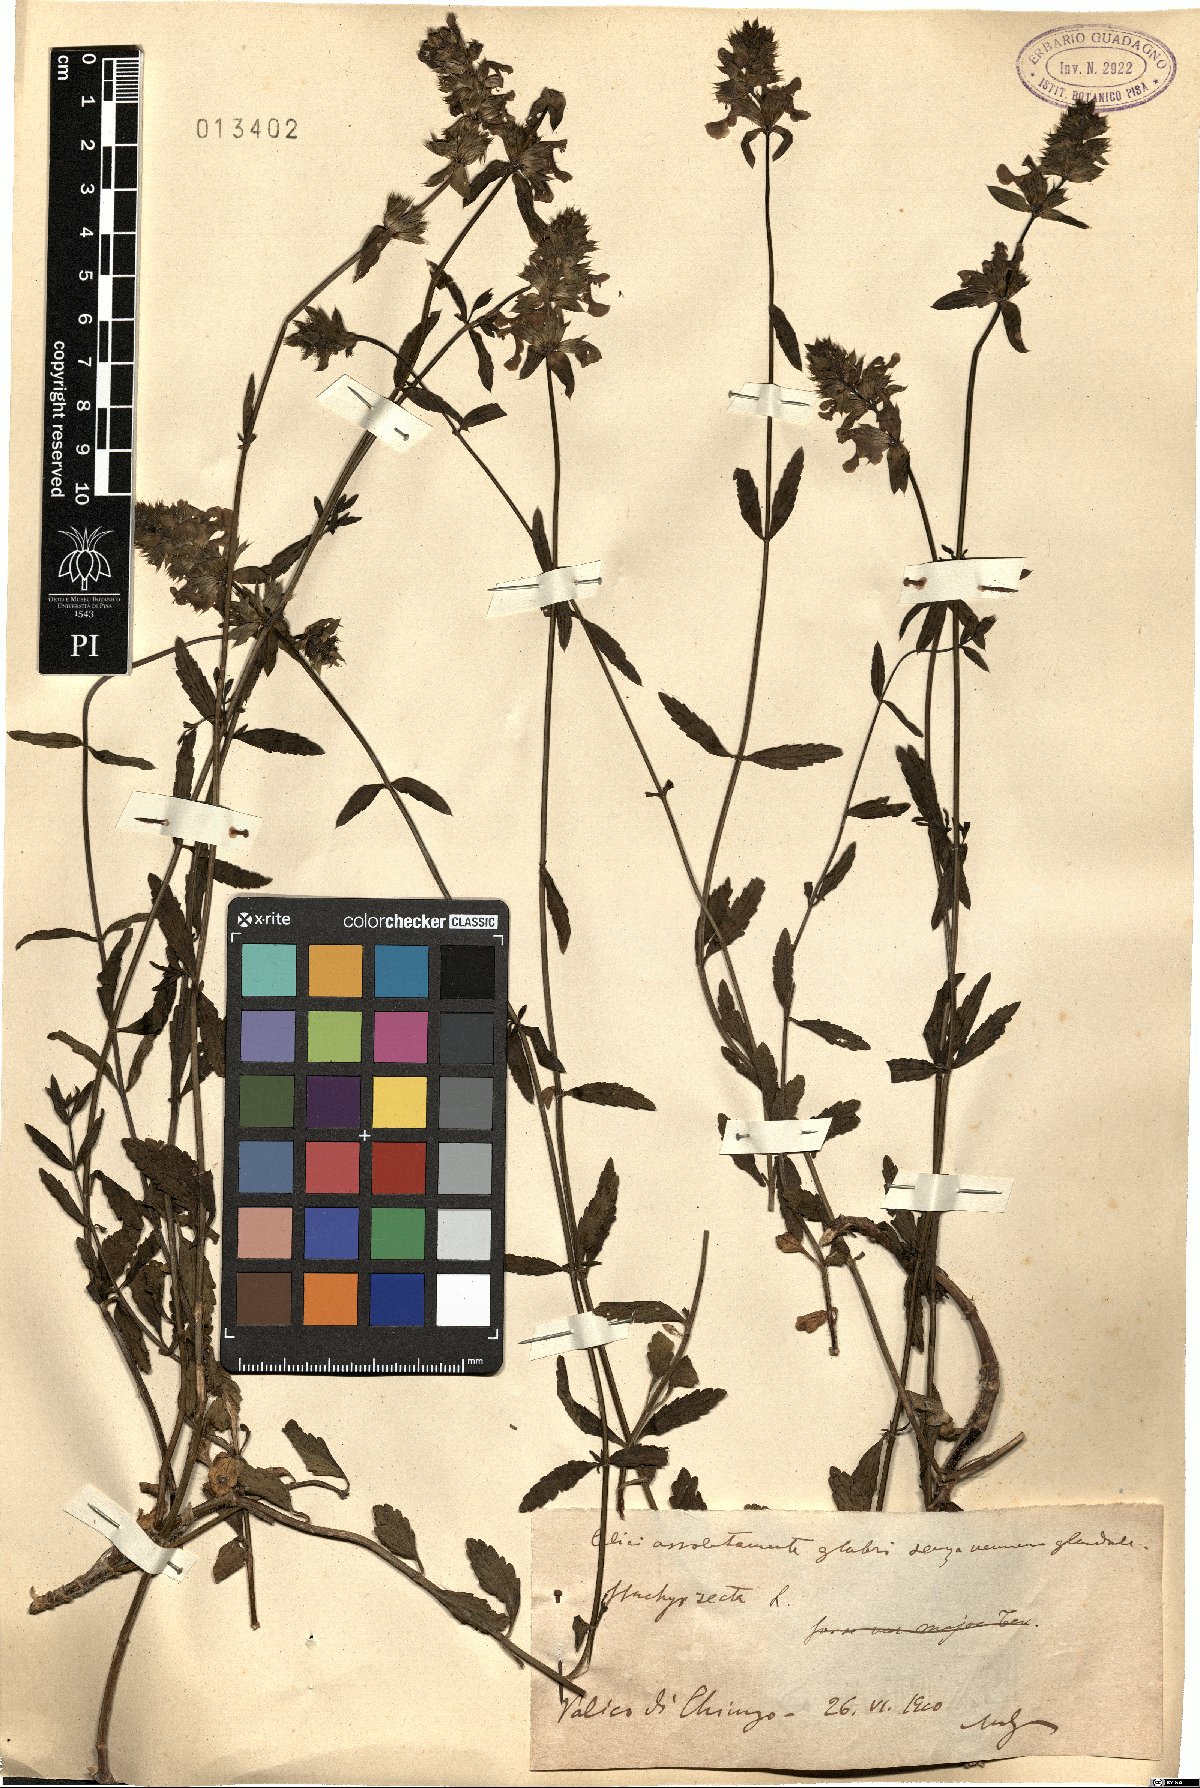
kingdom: Plantae
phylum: Tracheophyta
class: Magnoliopsida
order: Lamiales
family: Lamiaceae
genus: Stachys
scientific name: Stachys recta
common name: Perennial yellow-woundwort
